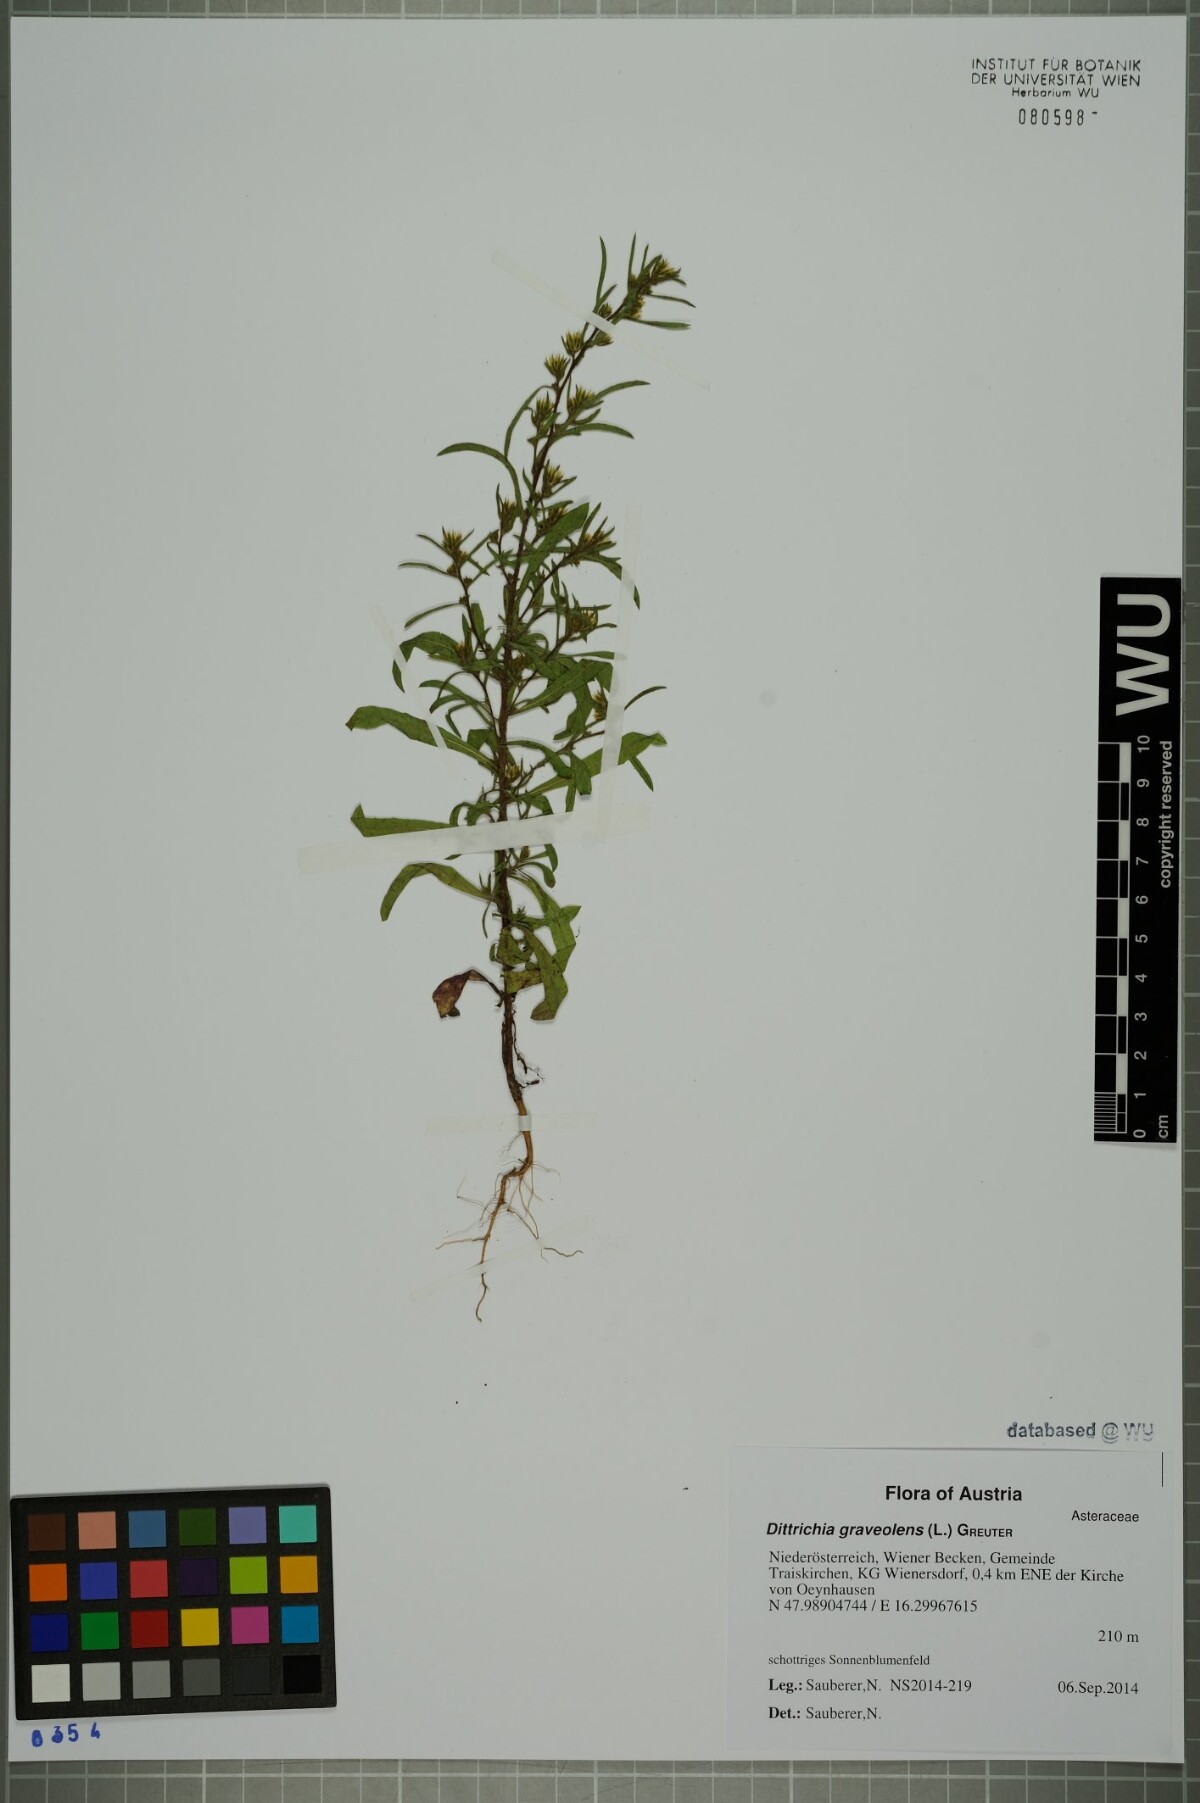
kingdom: Plantae
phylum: Tracheophyta
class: Magnoliopsida
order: Asterales
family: Asteraceae
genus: Dittrichia
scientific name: Dittrichia graveolens
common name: Stinking fleabane
